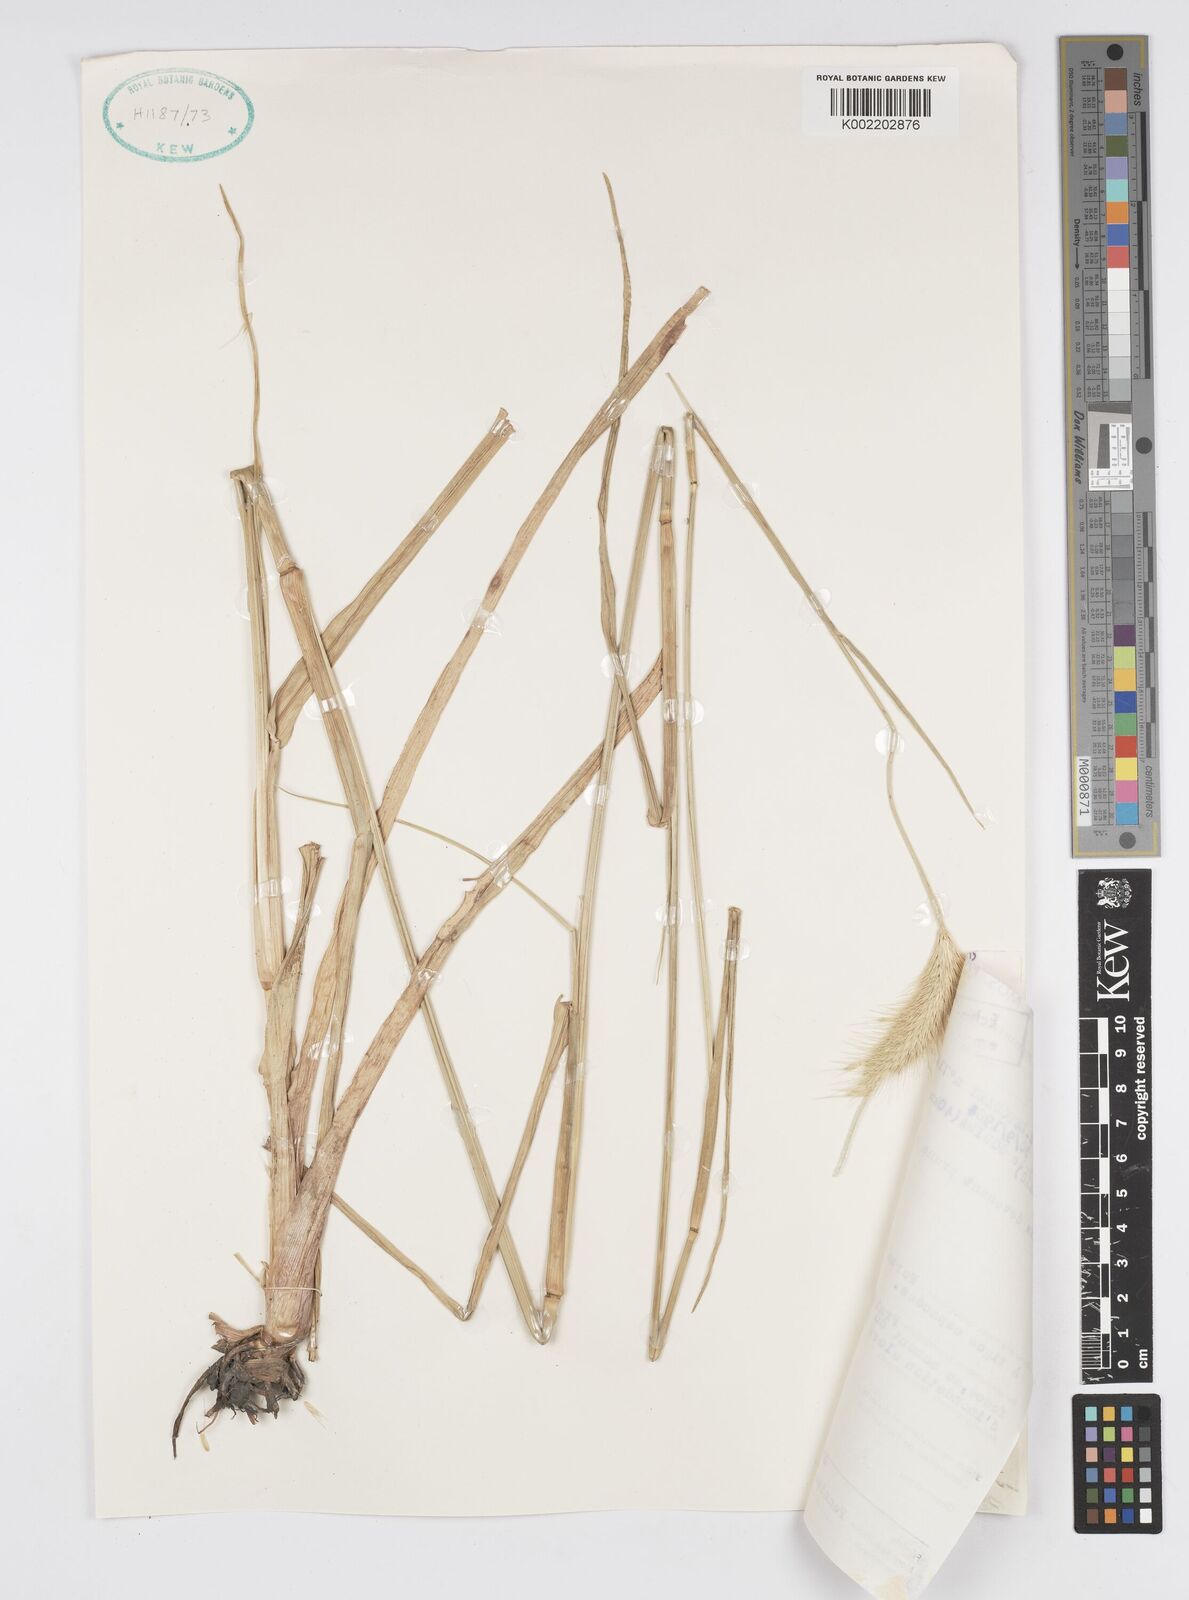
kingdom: Plantae
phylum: Tracheophyta
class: Liliopsida
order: Poales
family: Poaceae
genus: Cenchrus
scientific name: Cenchrus setosus
